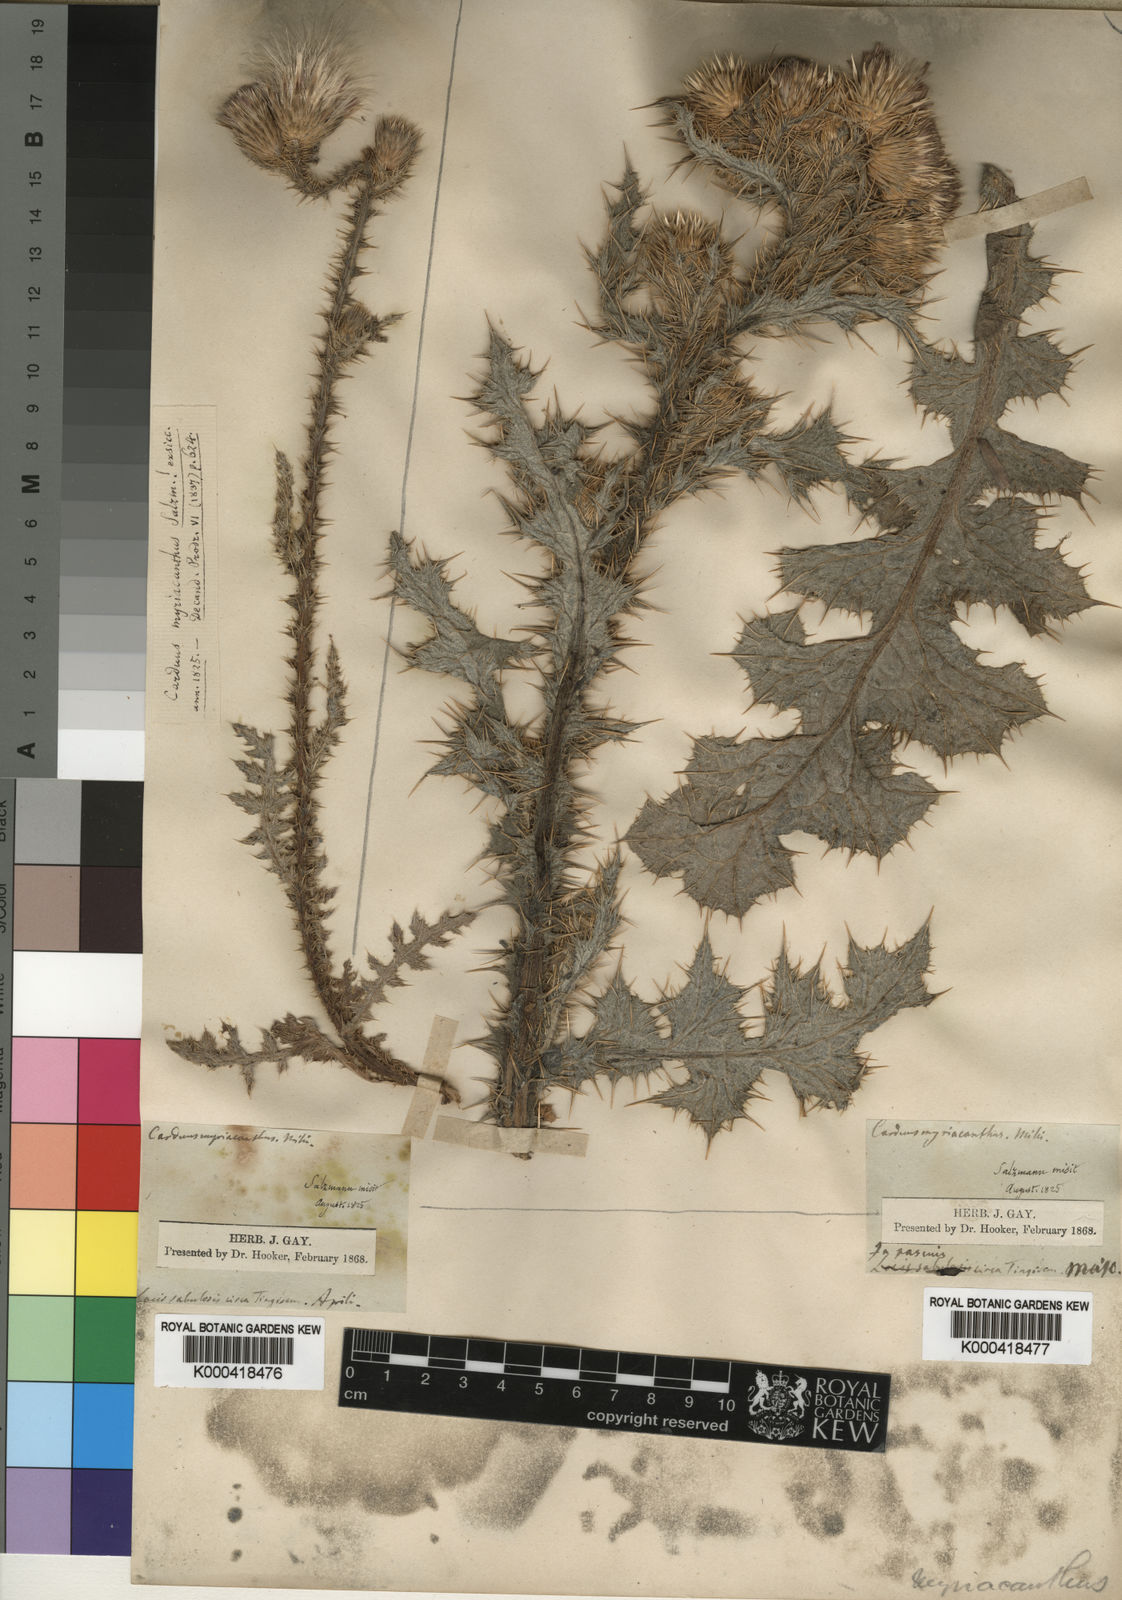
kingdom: Plantae
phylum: Tracheophyta
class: Magnoliopsida
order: Asterales
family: Asteraceae
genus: Carduus
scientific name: Carduus
